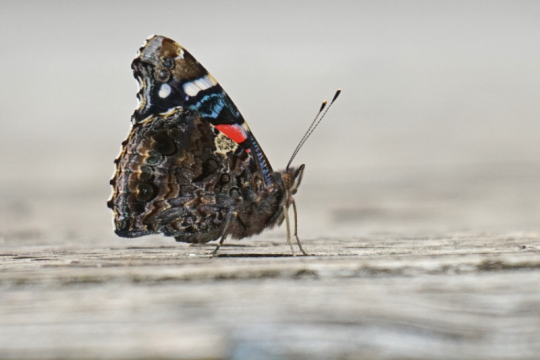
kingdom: Animalia
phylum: Arthropoda
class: Insecta
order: Lepidoptera
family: Nymphalidae
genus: Vanessa
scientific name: Vanessa atalanta
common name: Red Admiral
